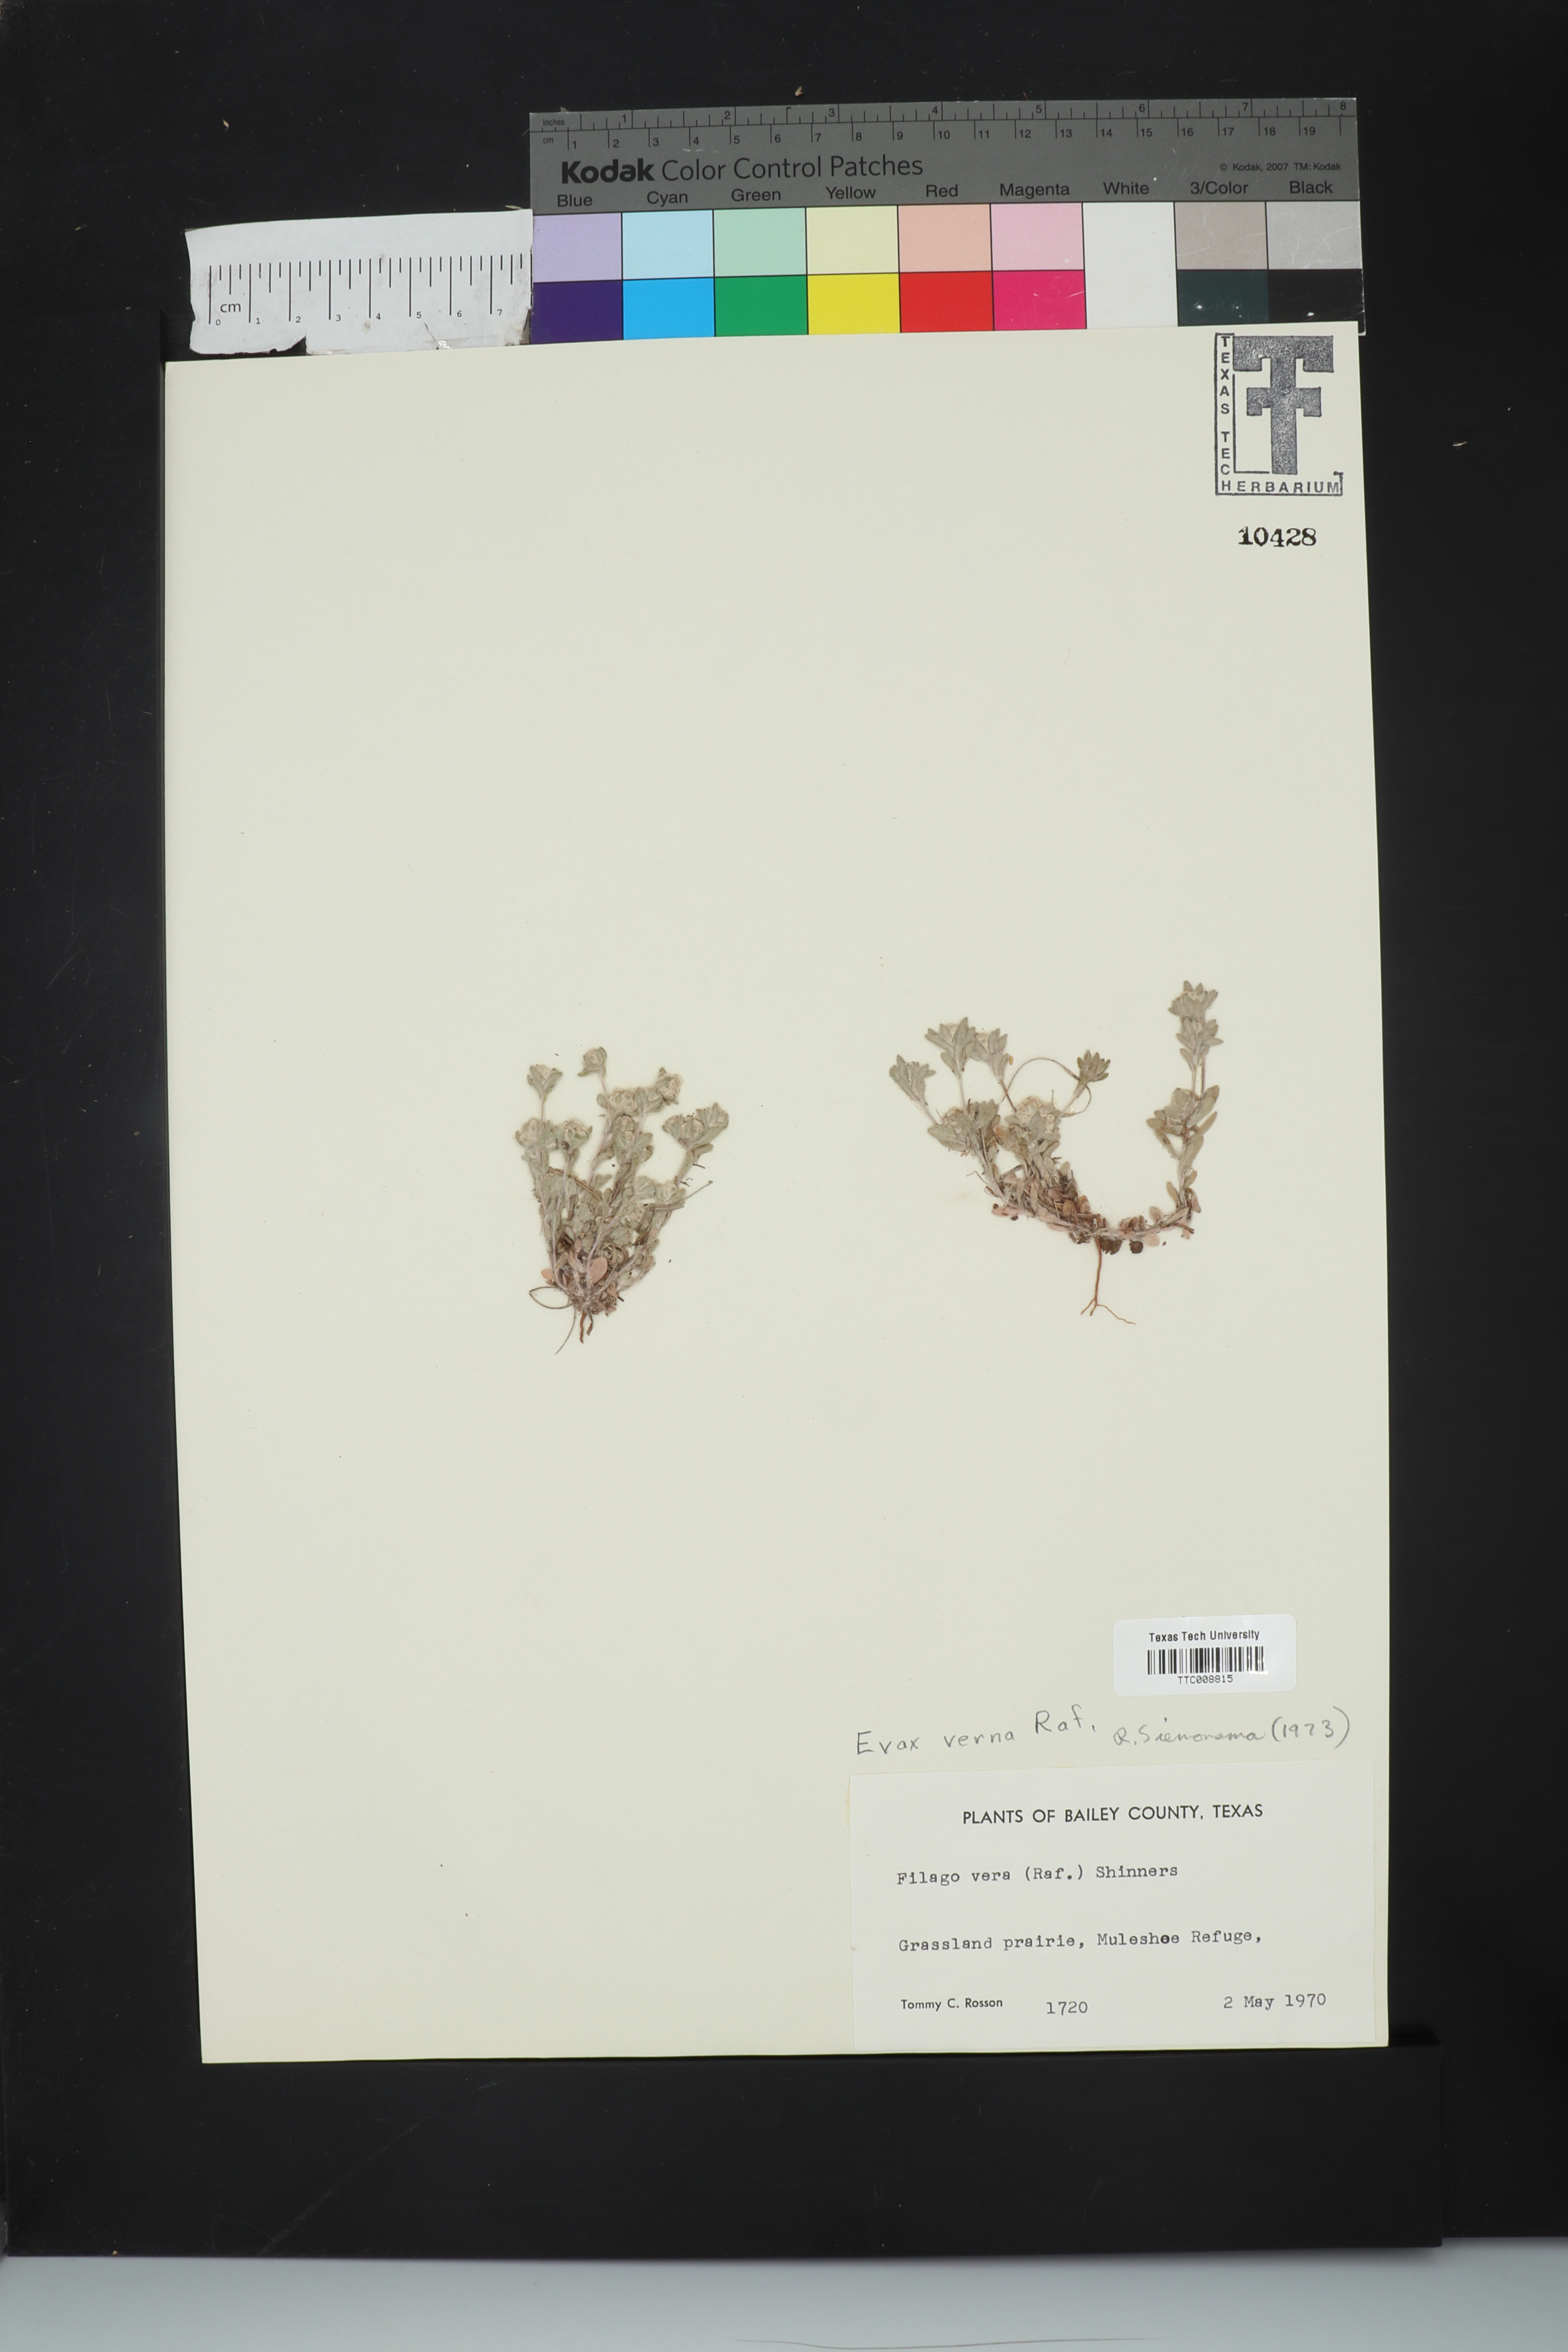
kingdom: Plantae
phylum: Tracheophyta
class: Magnoliopsida
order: Asterales
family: Asteraceae
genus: Diaperia
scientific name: Diaperia verna
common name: Many-stem rabbit-tobacco
